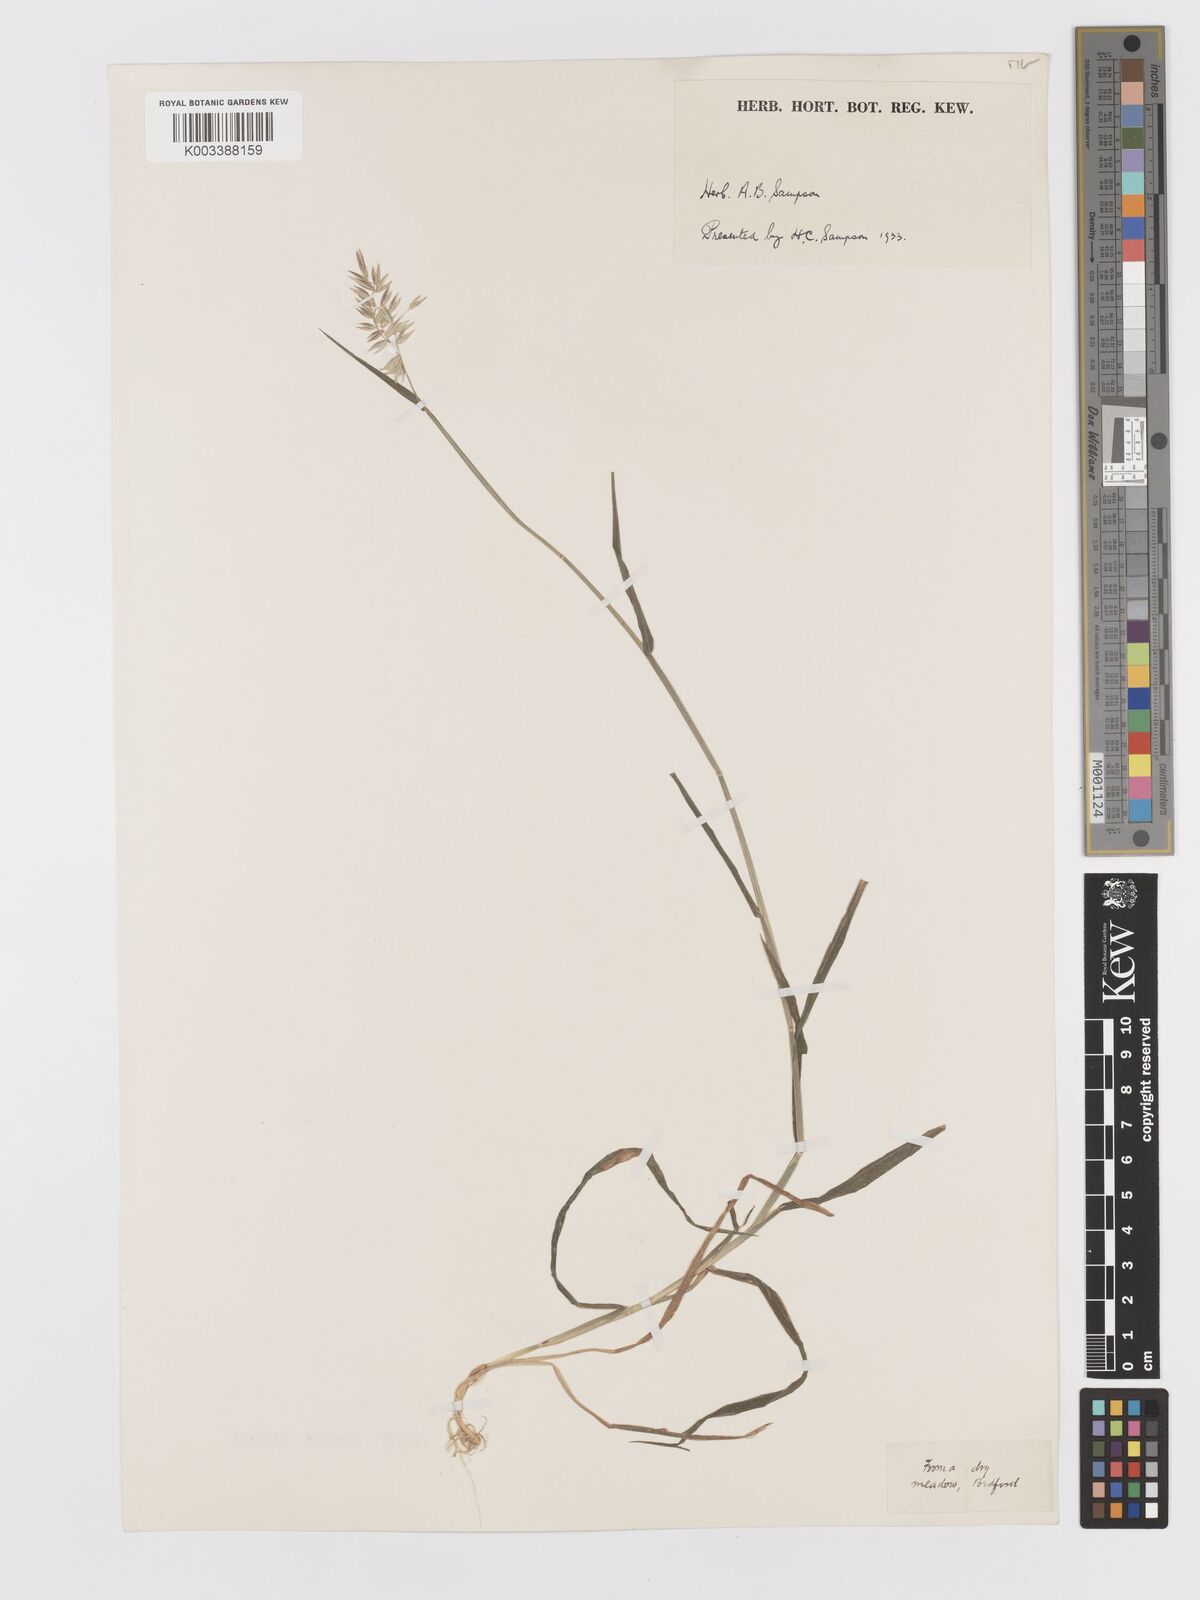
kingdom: Plantae
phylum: Tracheophyta
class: Liliopsida
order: Poales
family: Poaceae
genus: Holcus
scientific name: Holcus mollis
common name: Creeping velvetgrass
